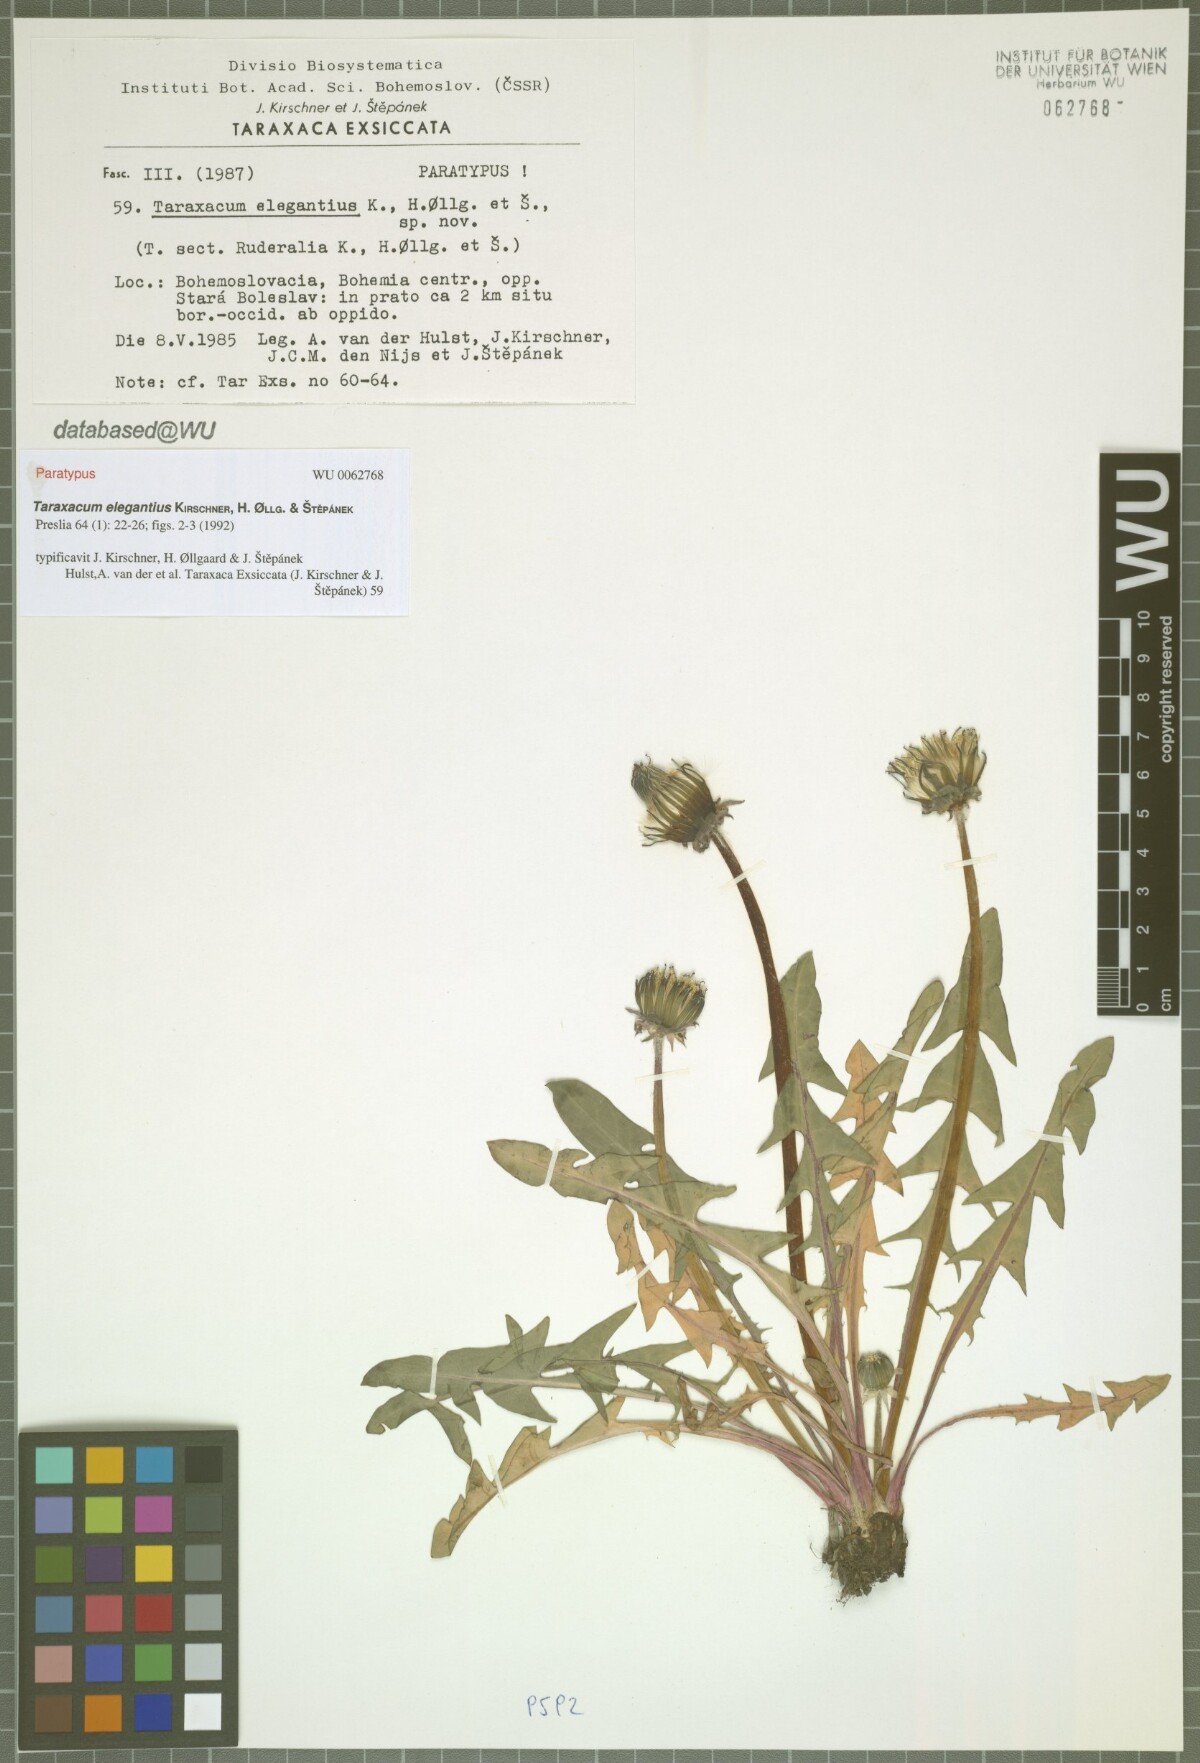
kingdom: Plantae
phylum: Tracheophyta
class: Magnoliopsida
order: Asterales
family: Asteraceae
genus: Taraxacum
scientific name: Taraxacum elegantius
